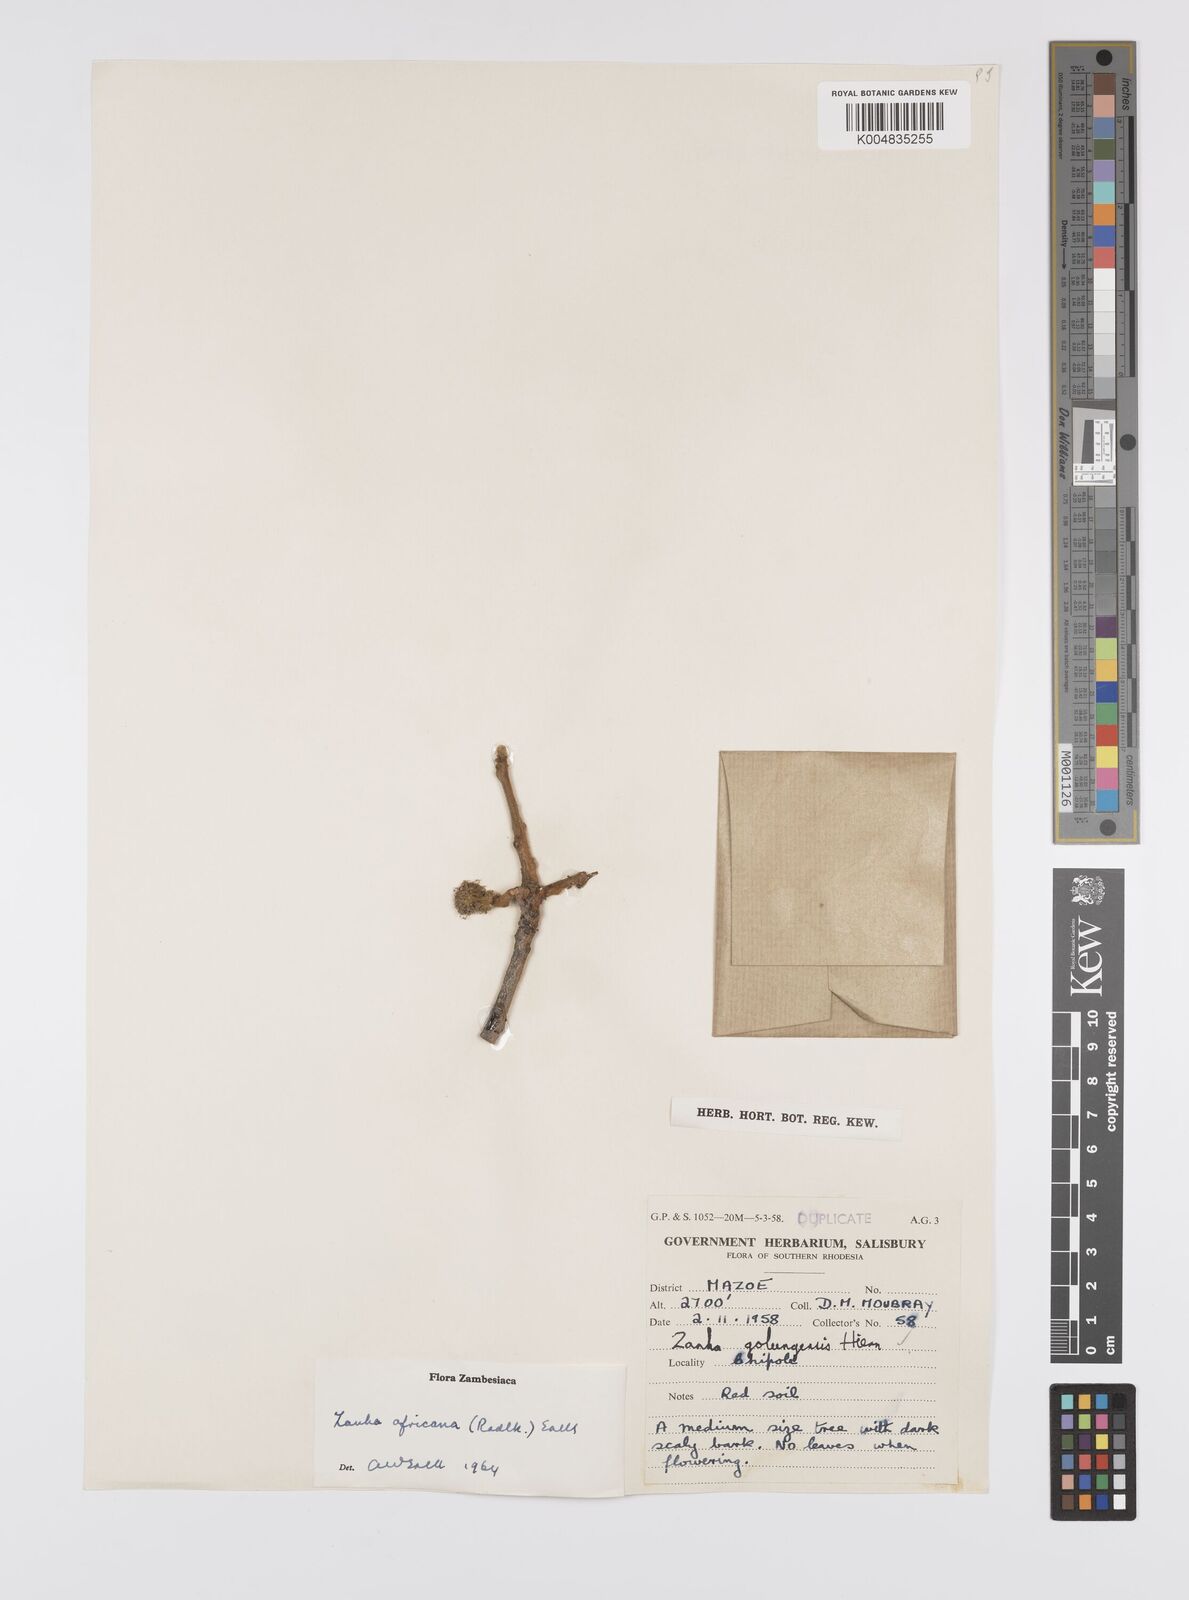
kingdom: Plantae
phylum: Tracheophyta
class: Magnoliopsida
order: Sapindales
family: Sapindaceae
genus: Zanha
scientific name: Zanha golungensis
